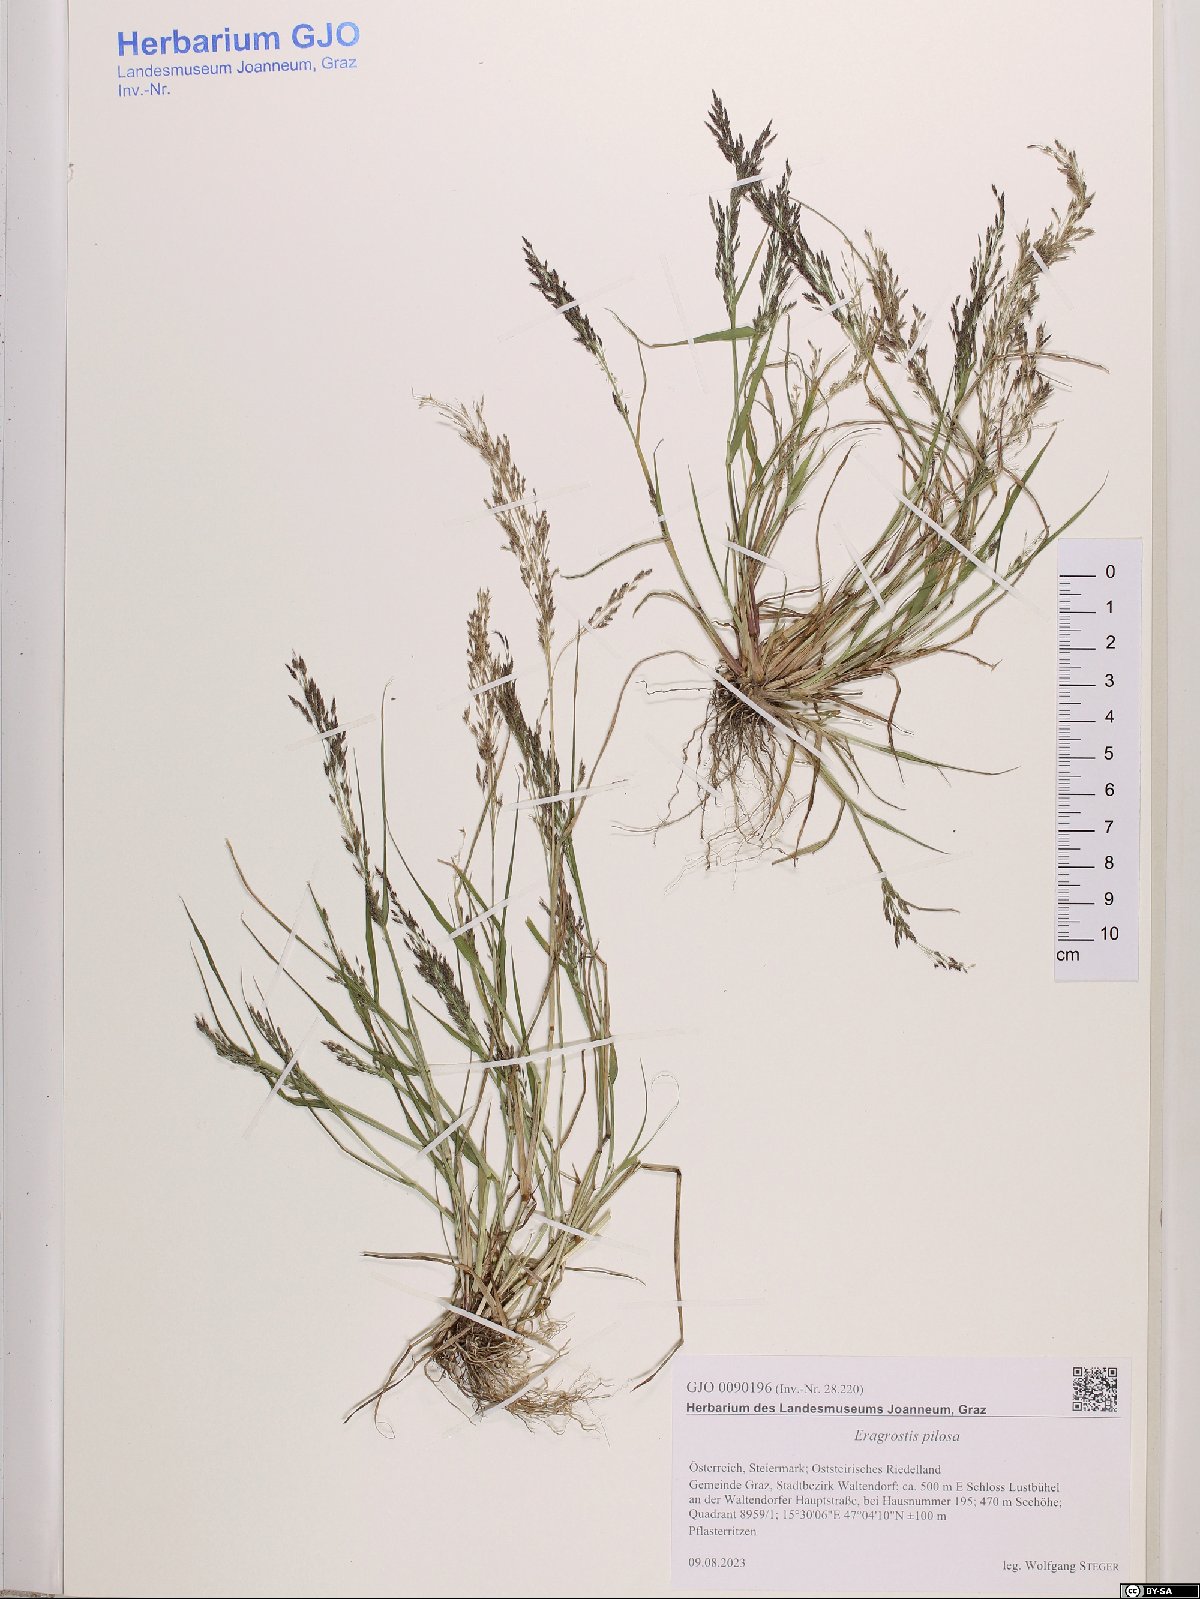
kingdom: Plantae
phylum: Tracheophyta
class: Liliopsida
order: Poales
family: Poaceae
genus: Eragrostis
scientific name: Eragrostis pilosa
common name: Indian lovegrass
